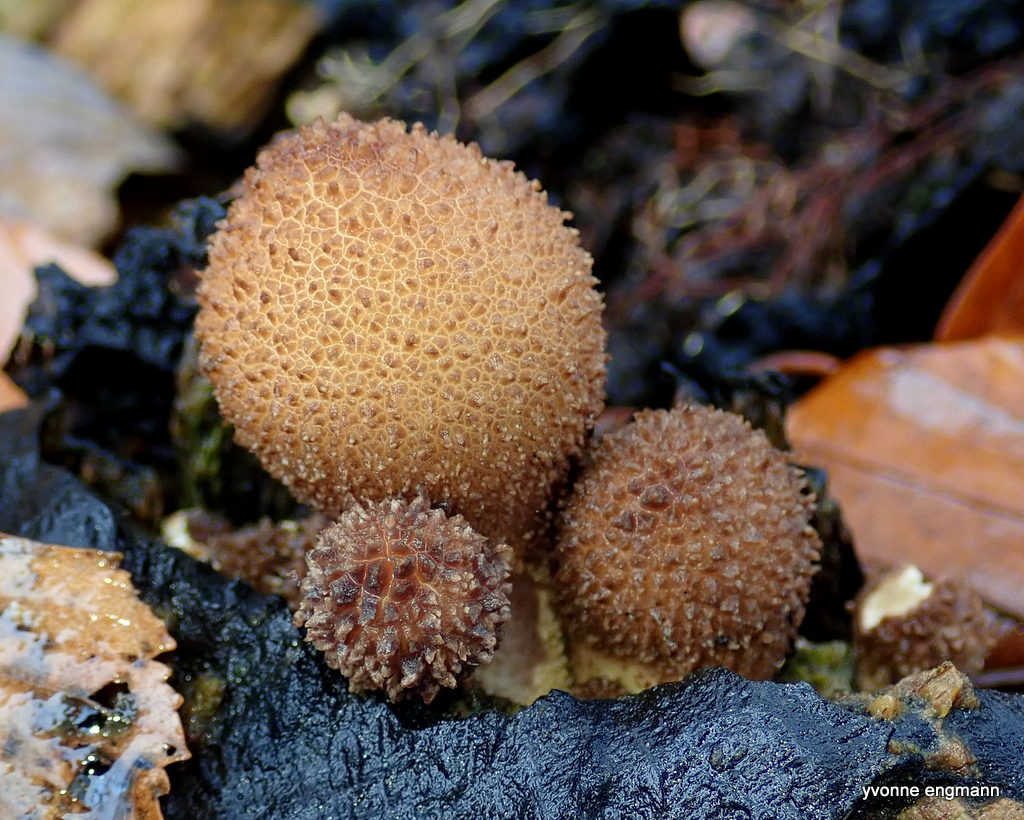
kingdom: Fungi
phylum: Basidiomycota
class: Agaricomycetes
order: Agaricales
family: Lycoperdaceae
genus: Apioperdon
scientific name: Apioperdon pyriforme
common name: pære-støvbold
